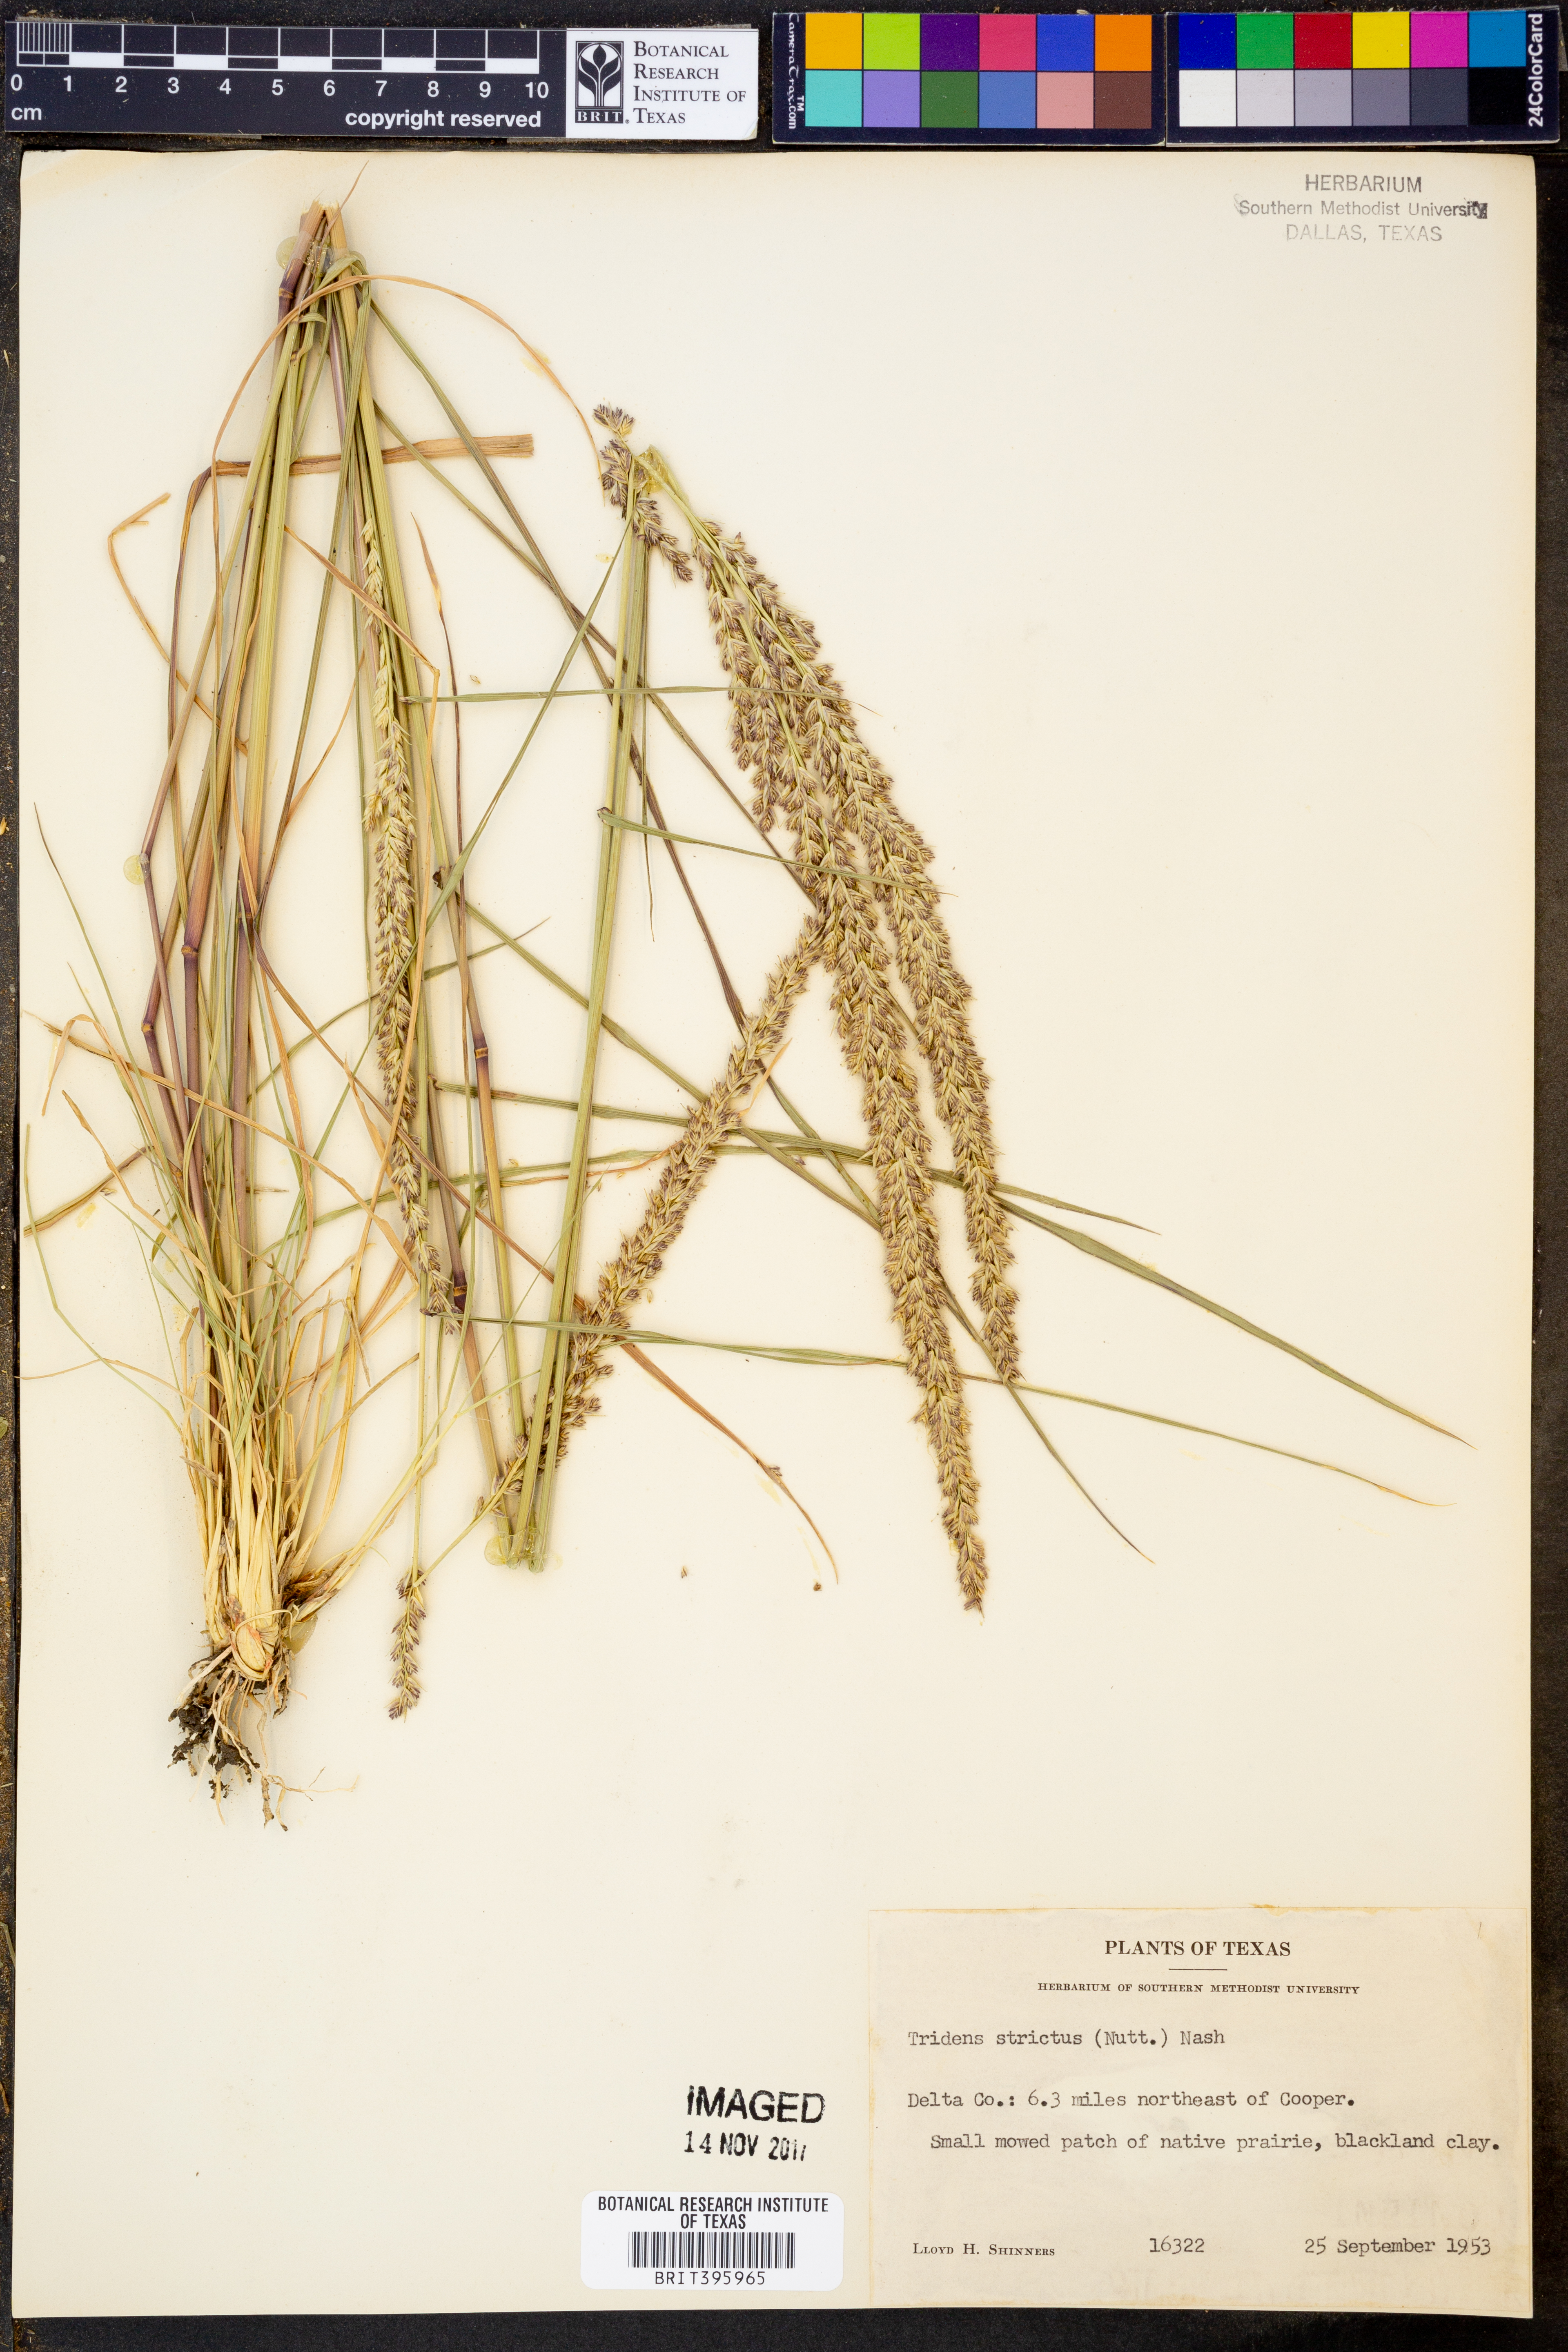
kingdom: Plantae
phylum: Tracheophyta
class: Liliopsida
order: Poales
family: Poaceae
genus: Tridens
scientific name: Tridens strictus
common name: Long-spike tridens
